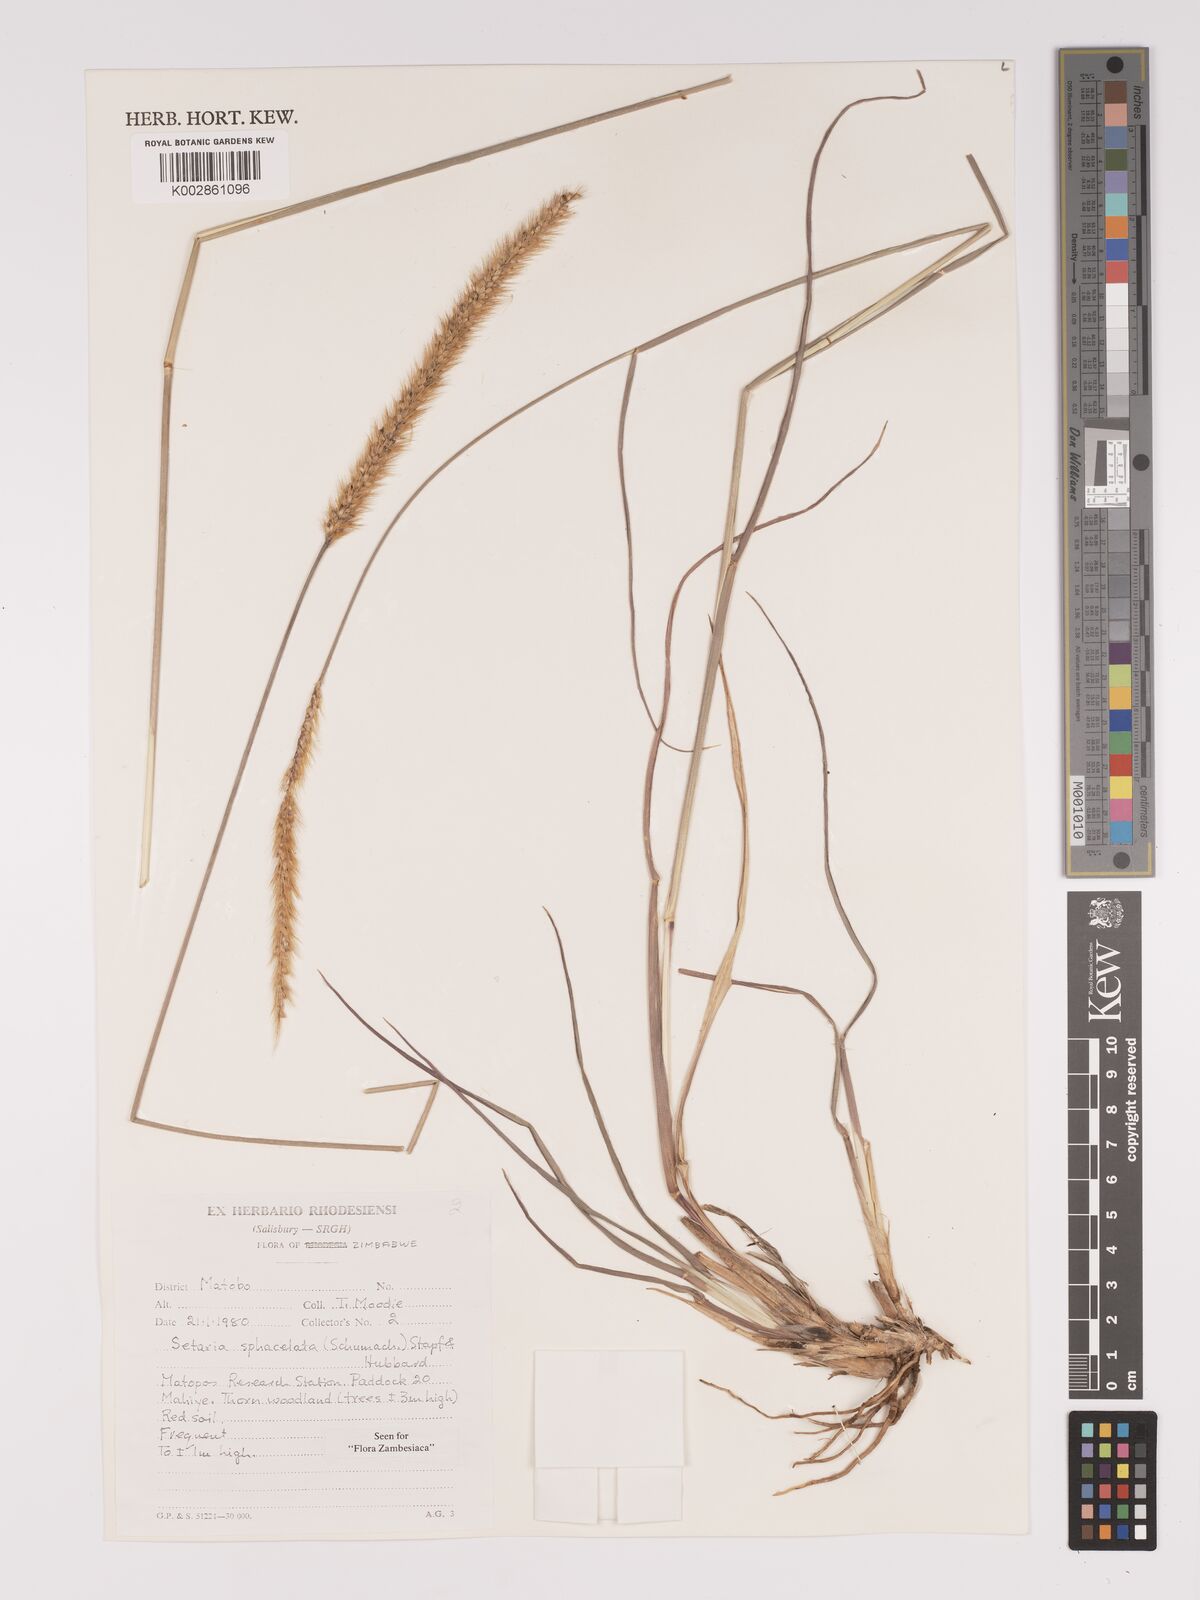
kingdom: Plantae
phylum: Tracheophyta
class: Liliopsida
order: Poales
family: Poaceae
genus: Setaria
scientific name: Setaria sphacelata
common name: African bristlegrass
